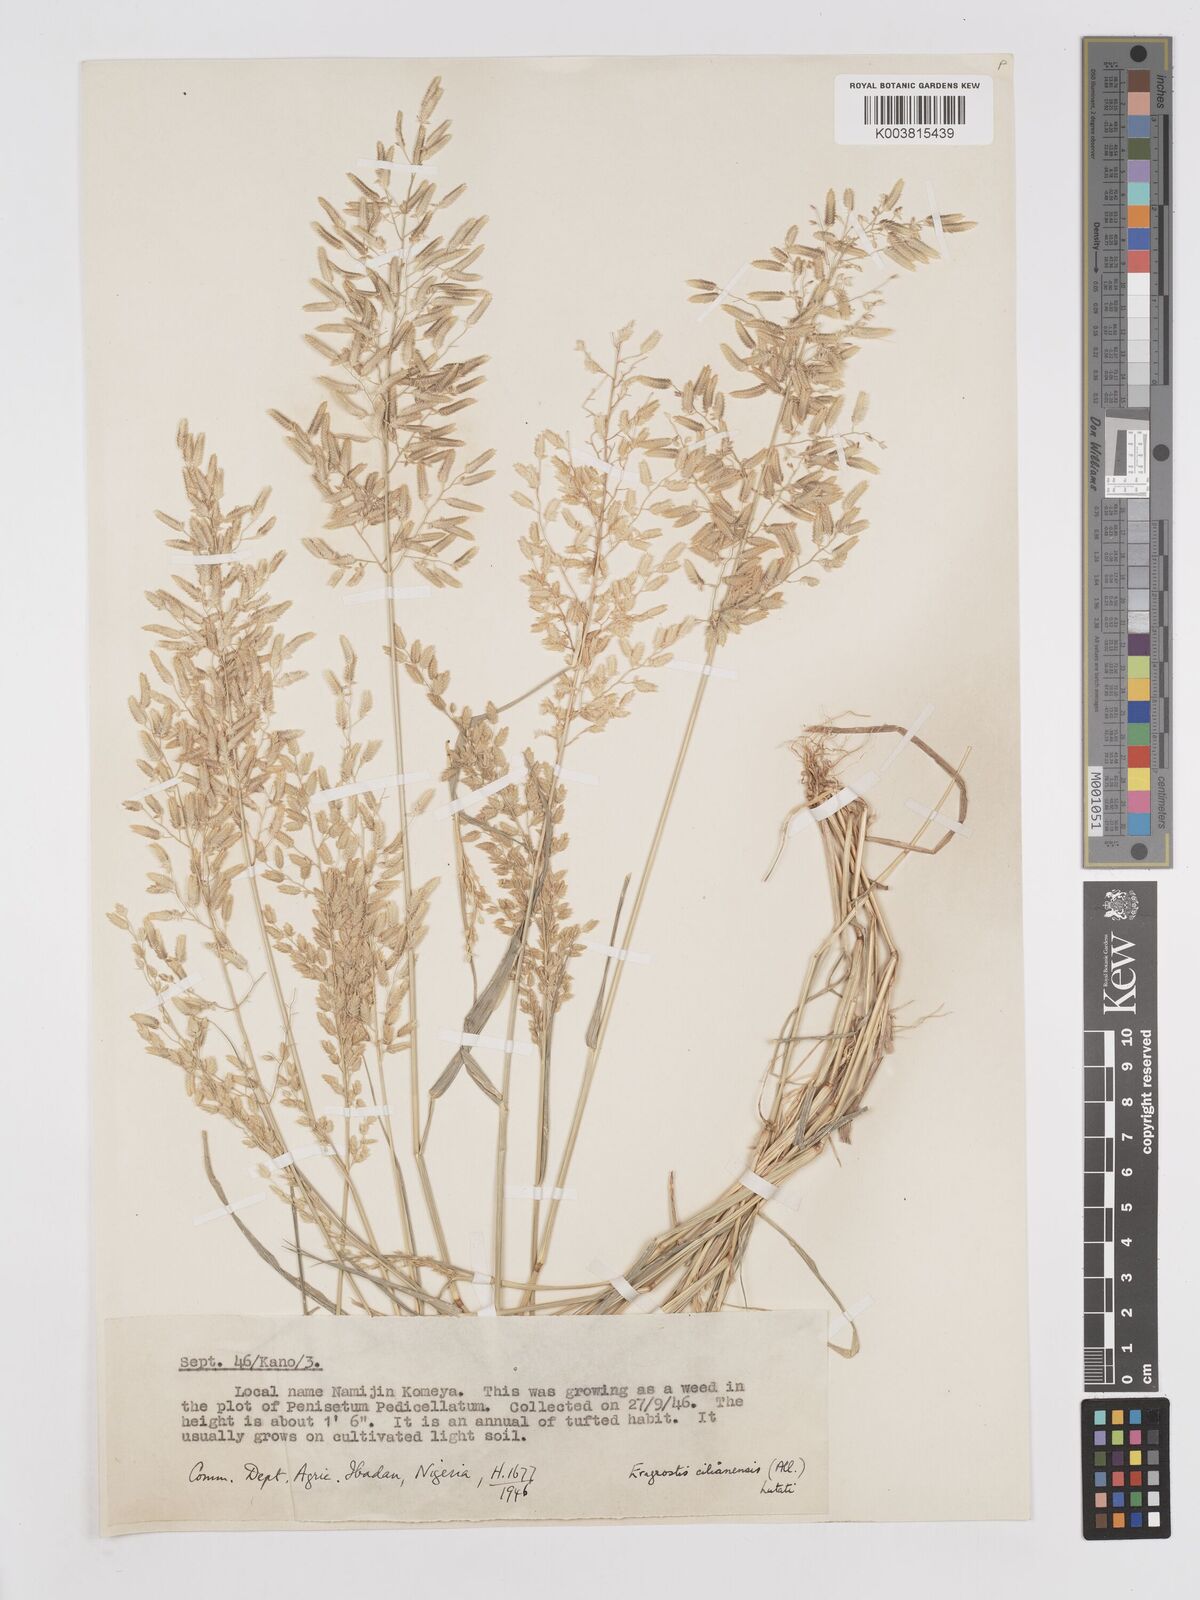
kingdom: Plantae
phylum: Tracheophyta
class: Liliopsida
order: Poales
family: Poaceae
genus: Eragrostis
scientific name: Eragrostis cilianensis
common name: Stinkgrass
